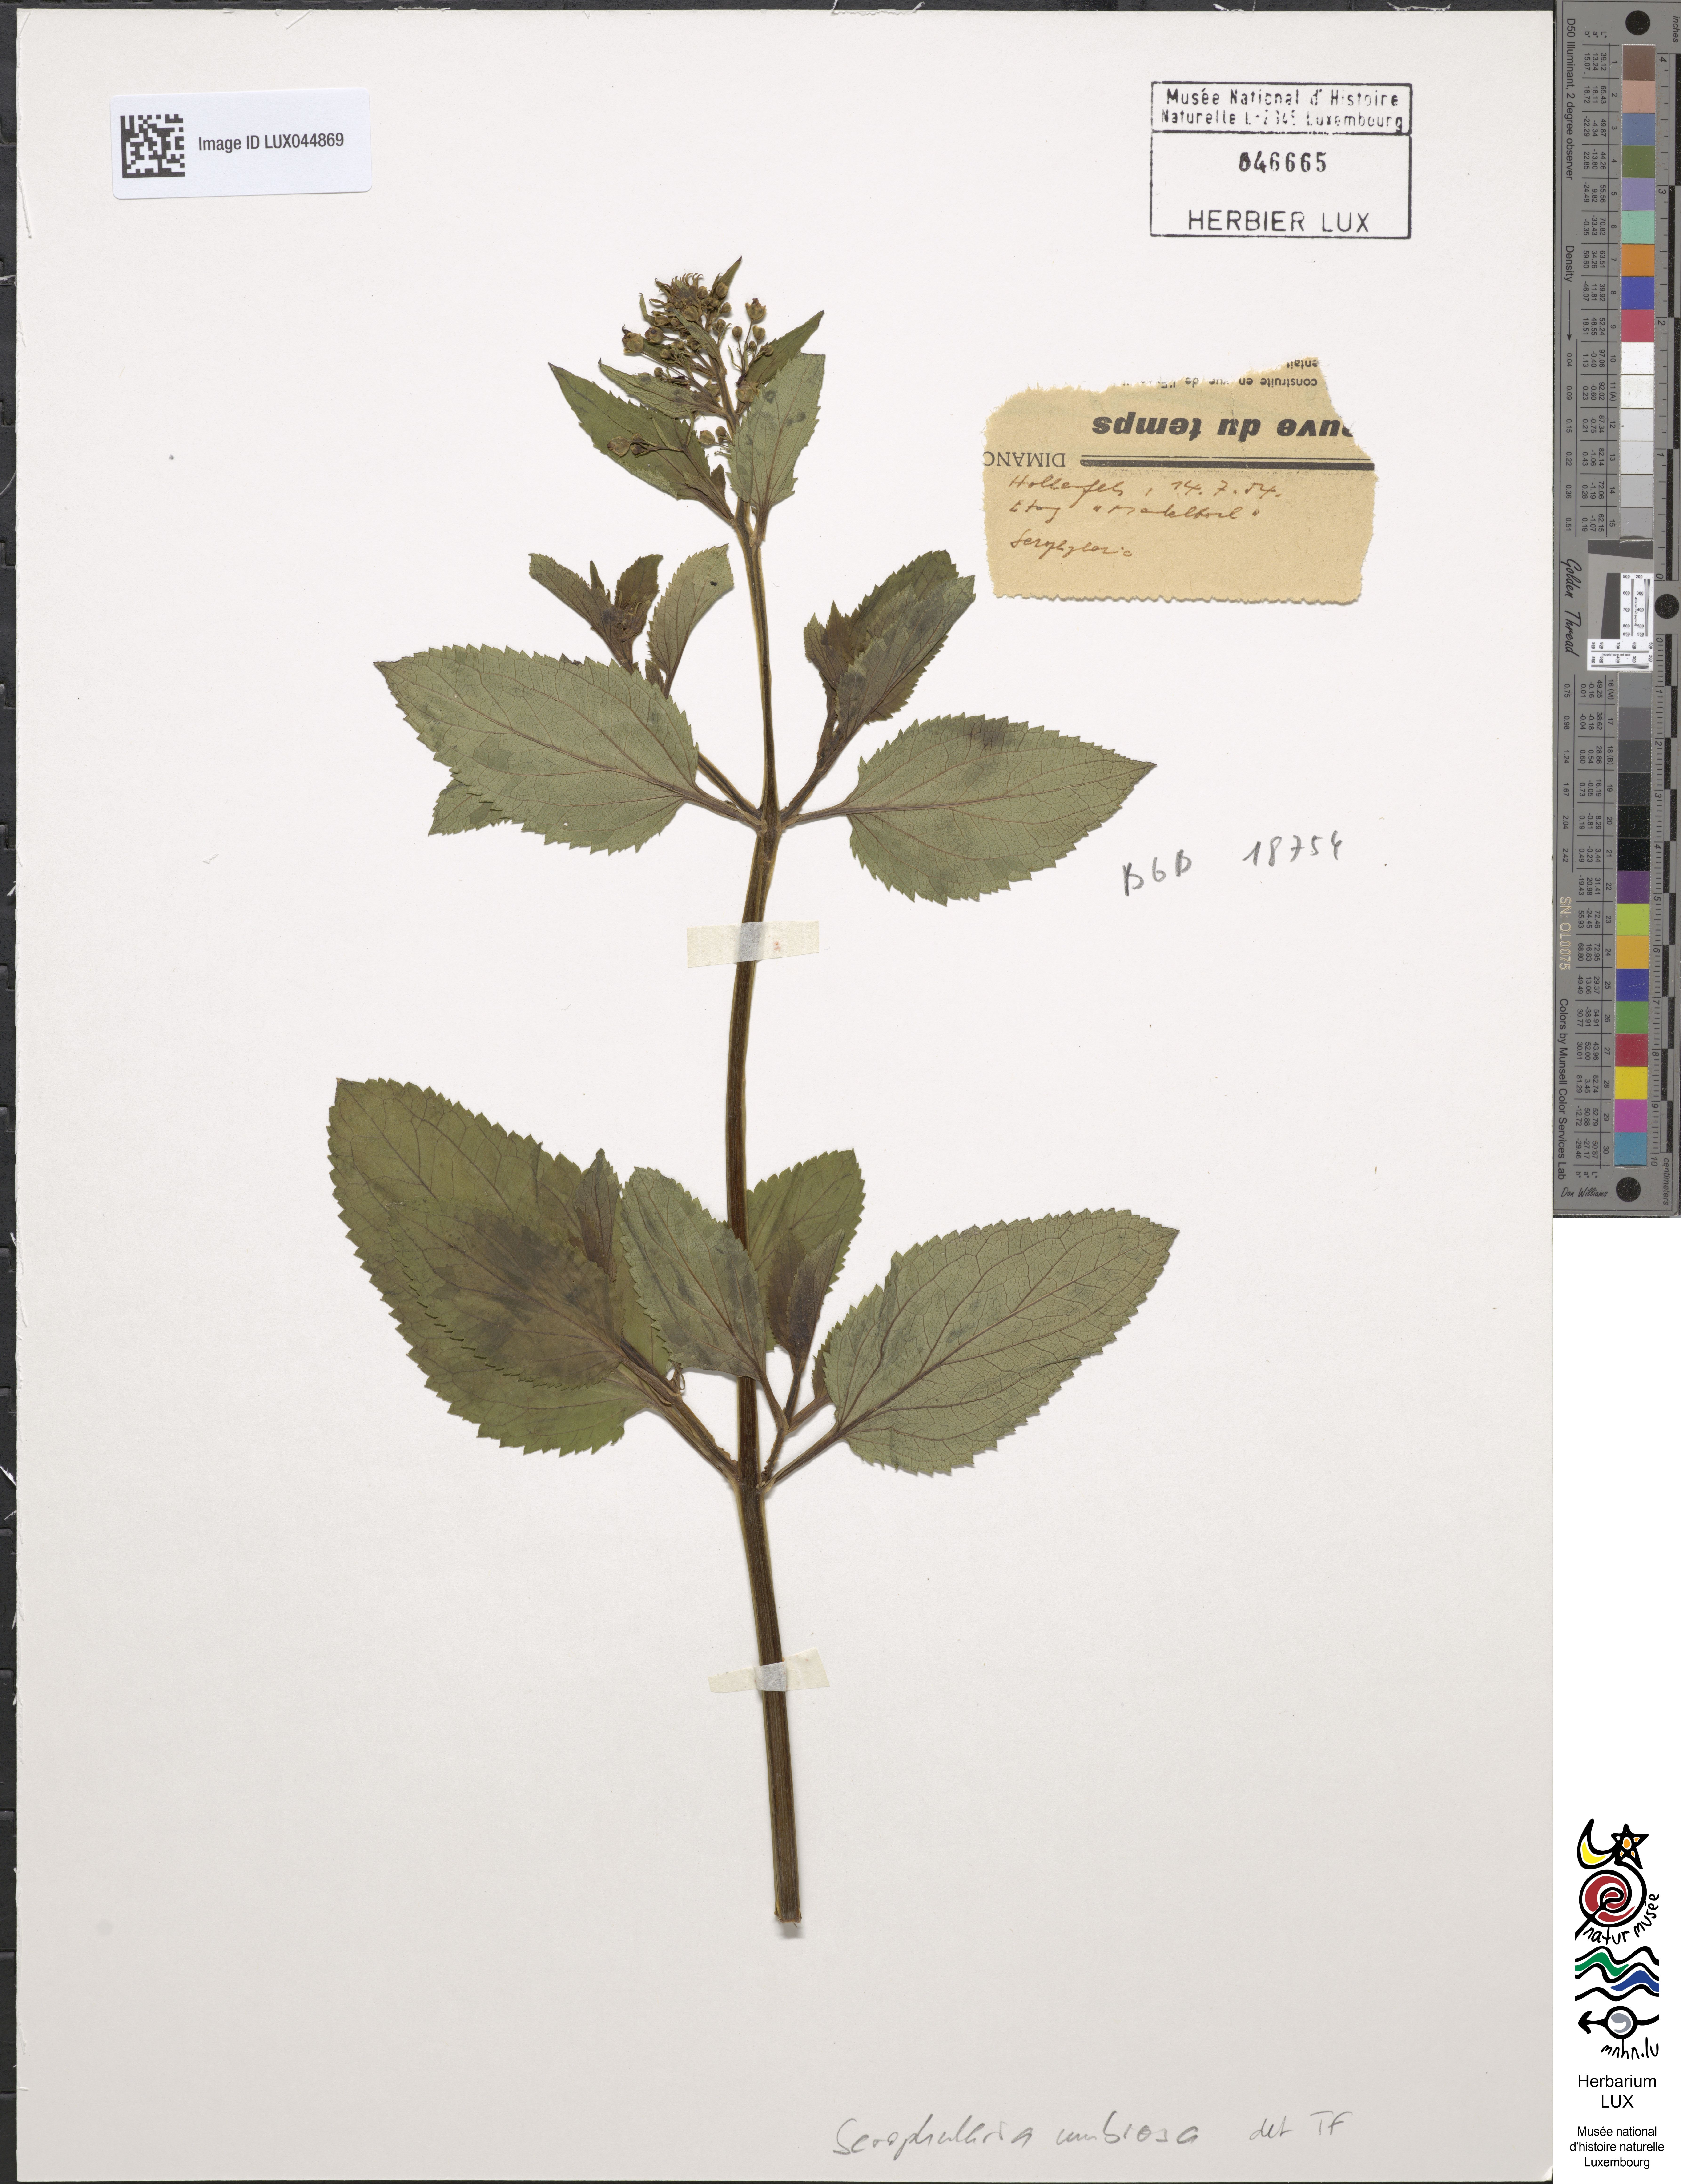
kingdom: Plantae
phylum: Tracheophyta
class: Magnoliopsida
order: Lamiales
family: Scrophulariaceae
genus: Scrophularia
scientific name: Scrophularia umbrosa
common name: Green figwort
